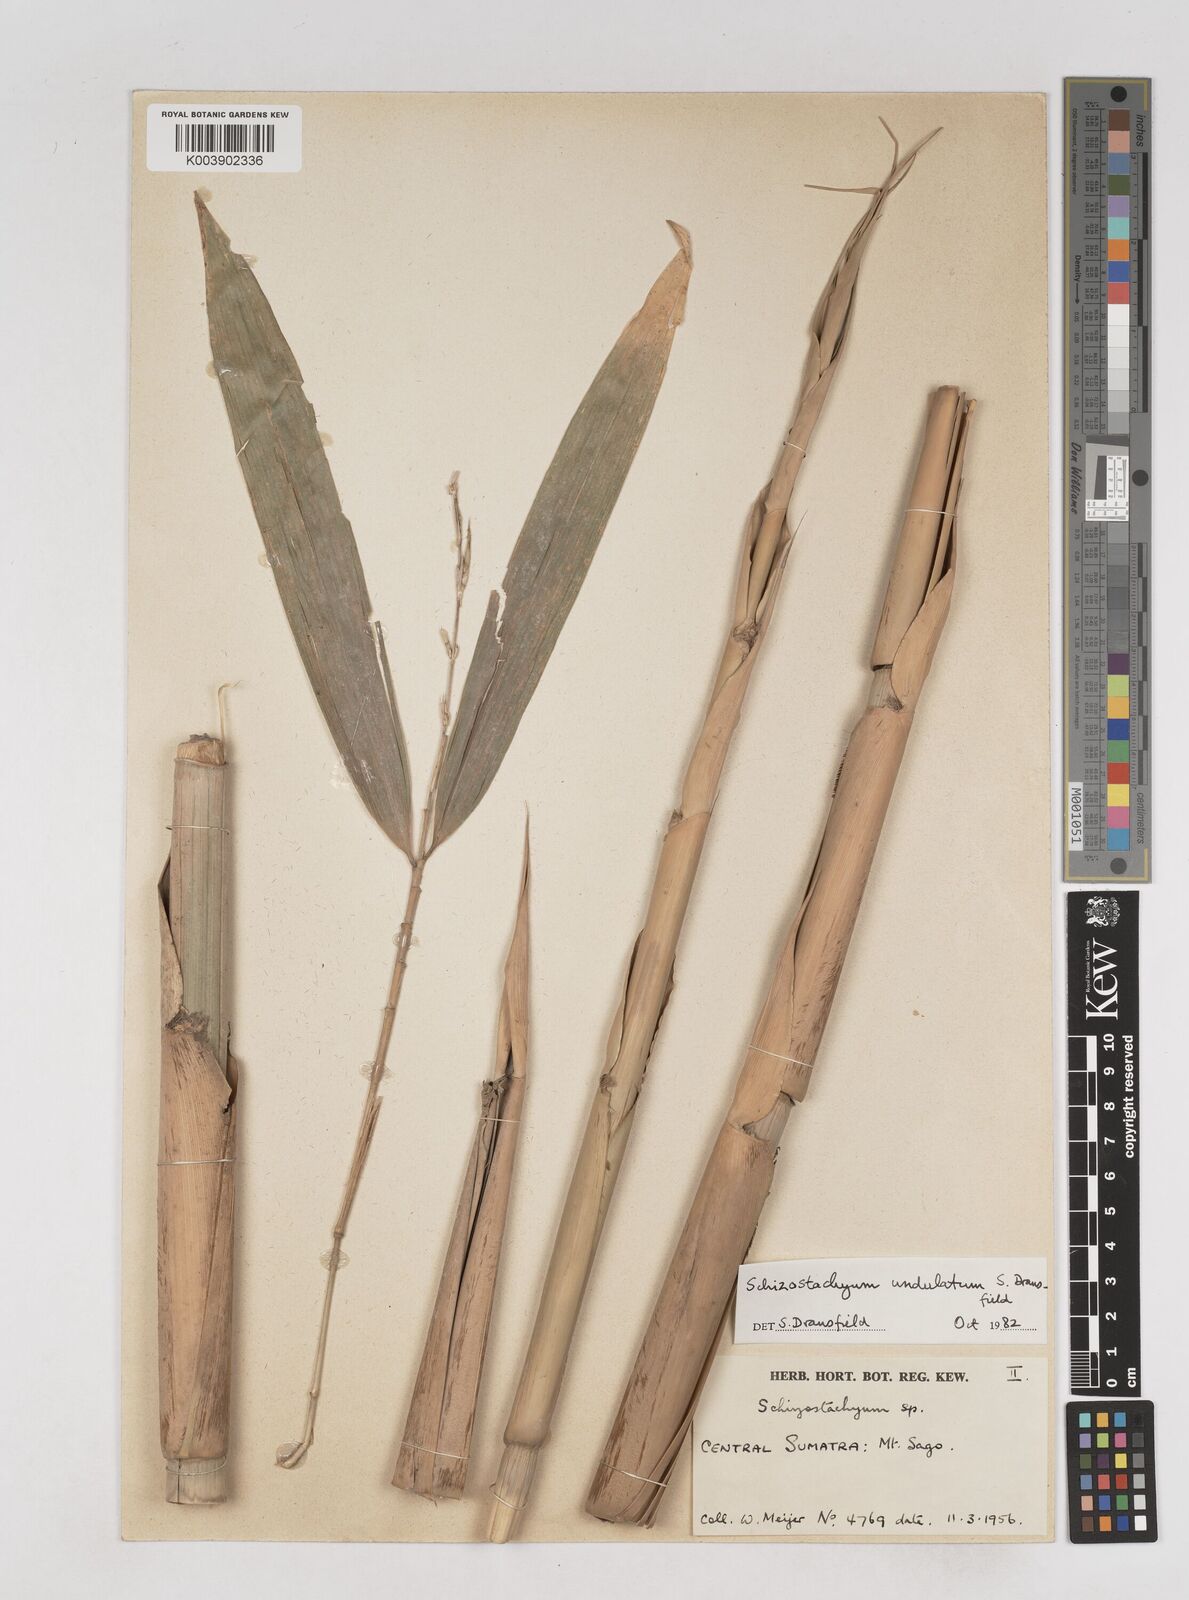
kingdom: Plantae
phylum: Tracheophyta
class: Liliopsida
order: Poales
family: Poaceae
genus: Schizostachyum
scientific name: Schizostachyum
